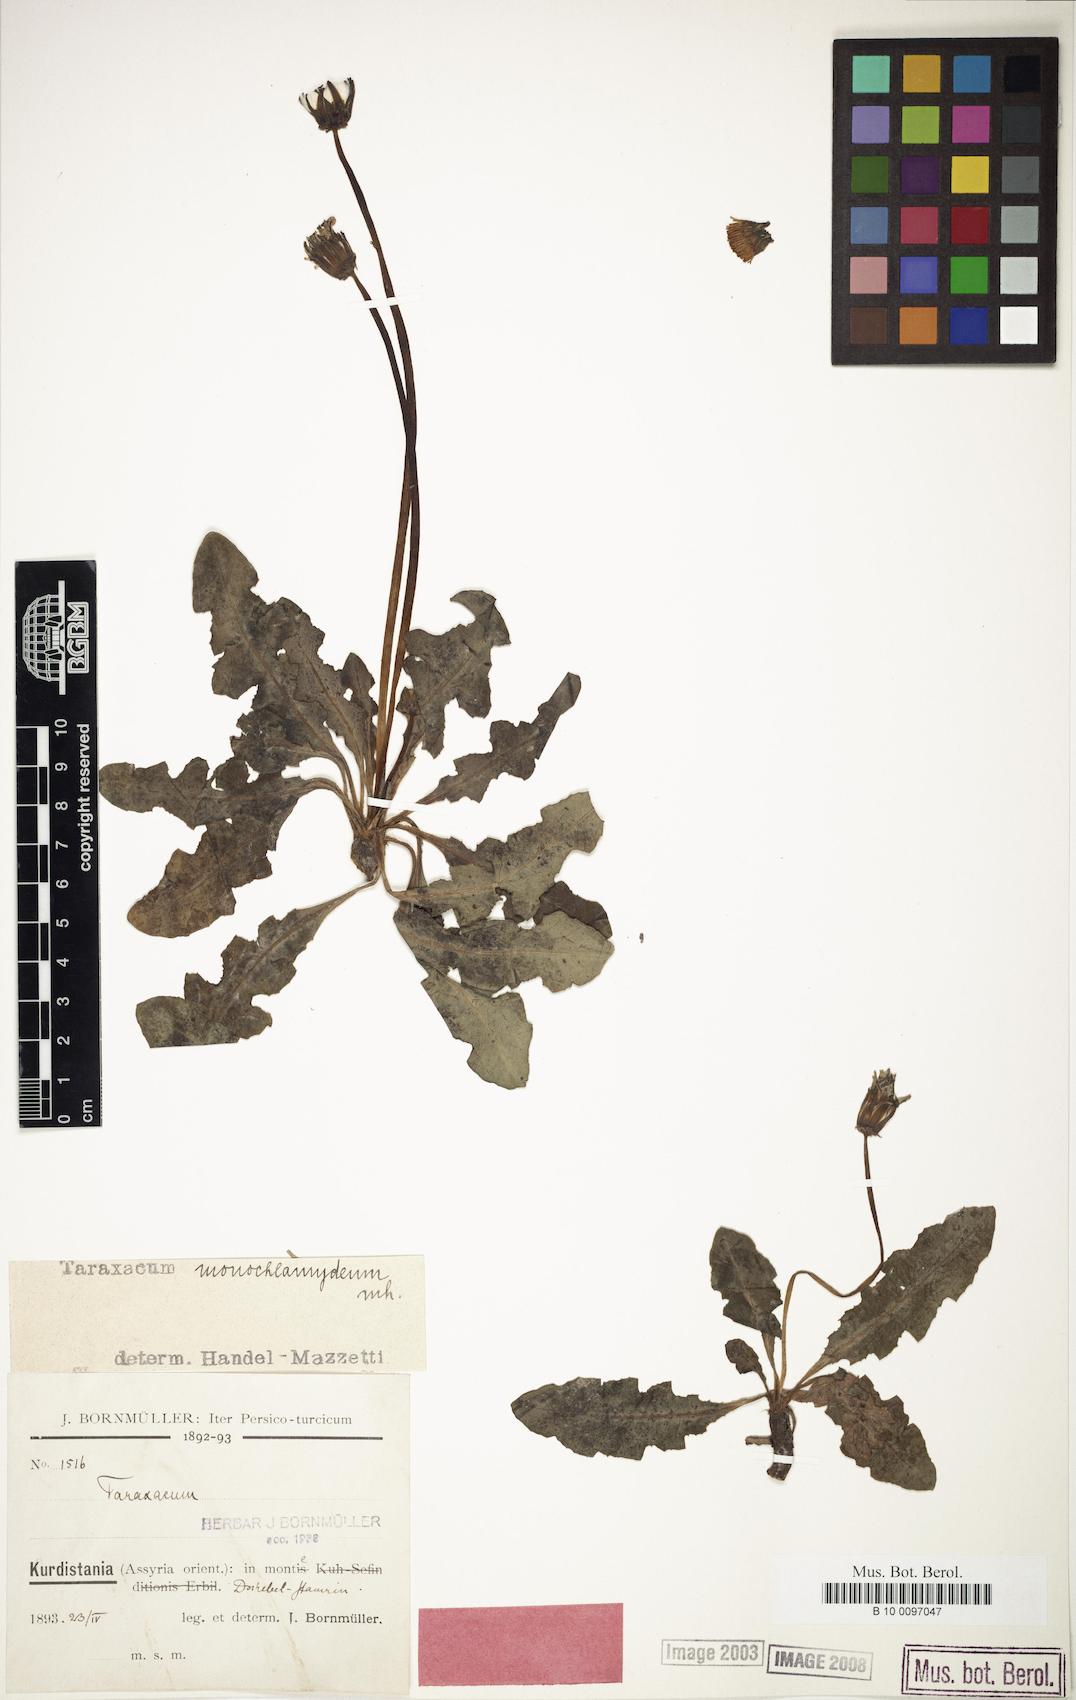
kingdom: Plantae
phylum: Tracheophyta
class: Magnoliopsida
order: Asterales
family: Asteraceae
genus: Taraxacum
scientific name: Taraxacum monochlamydeum
